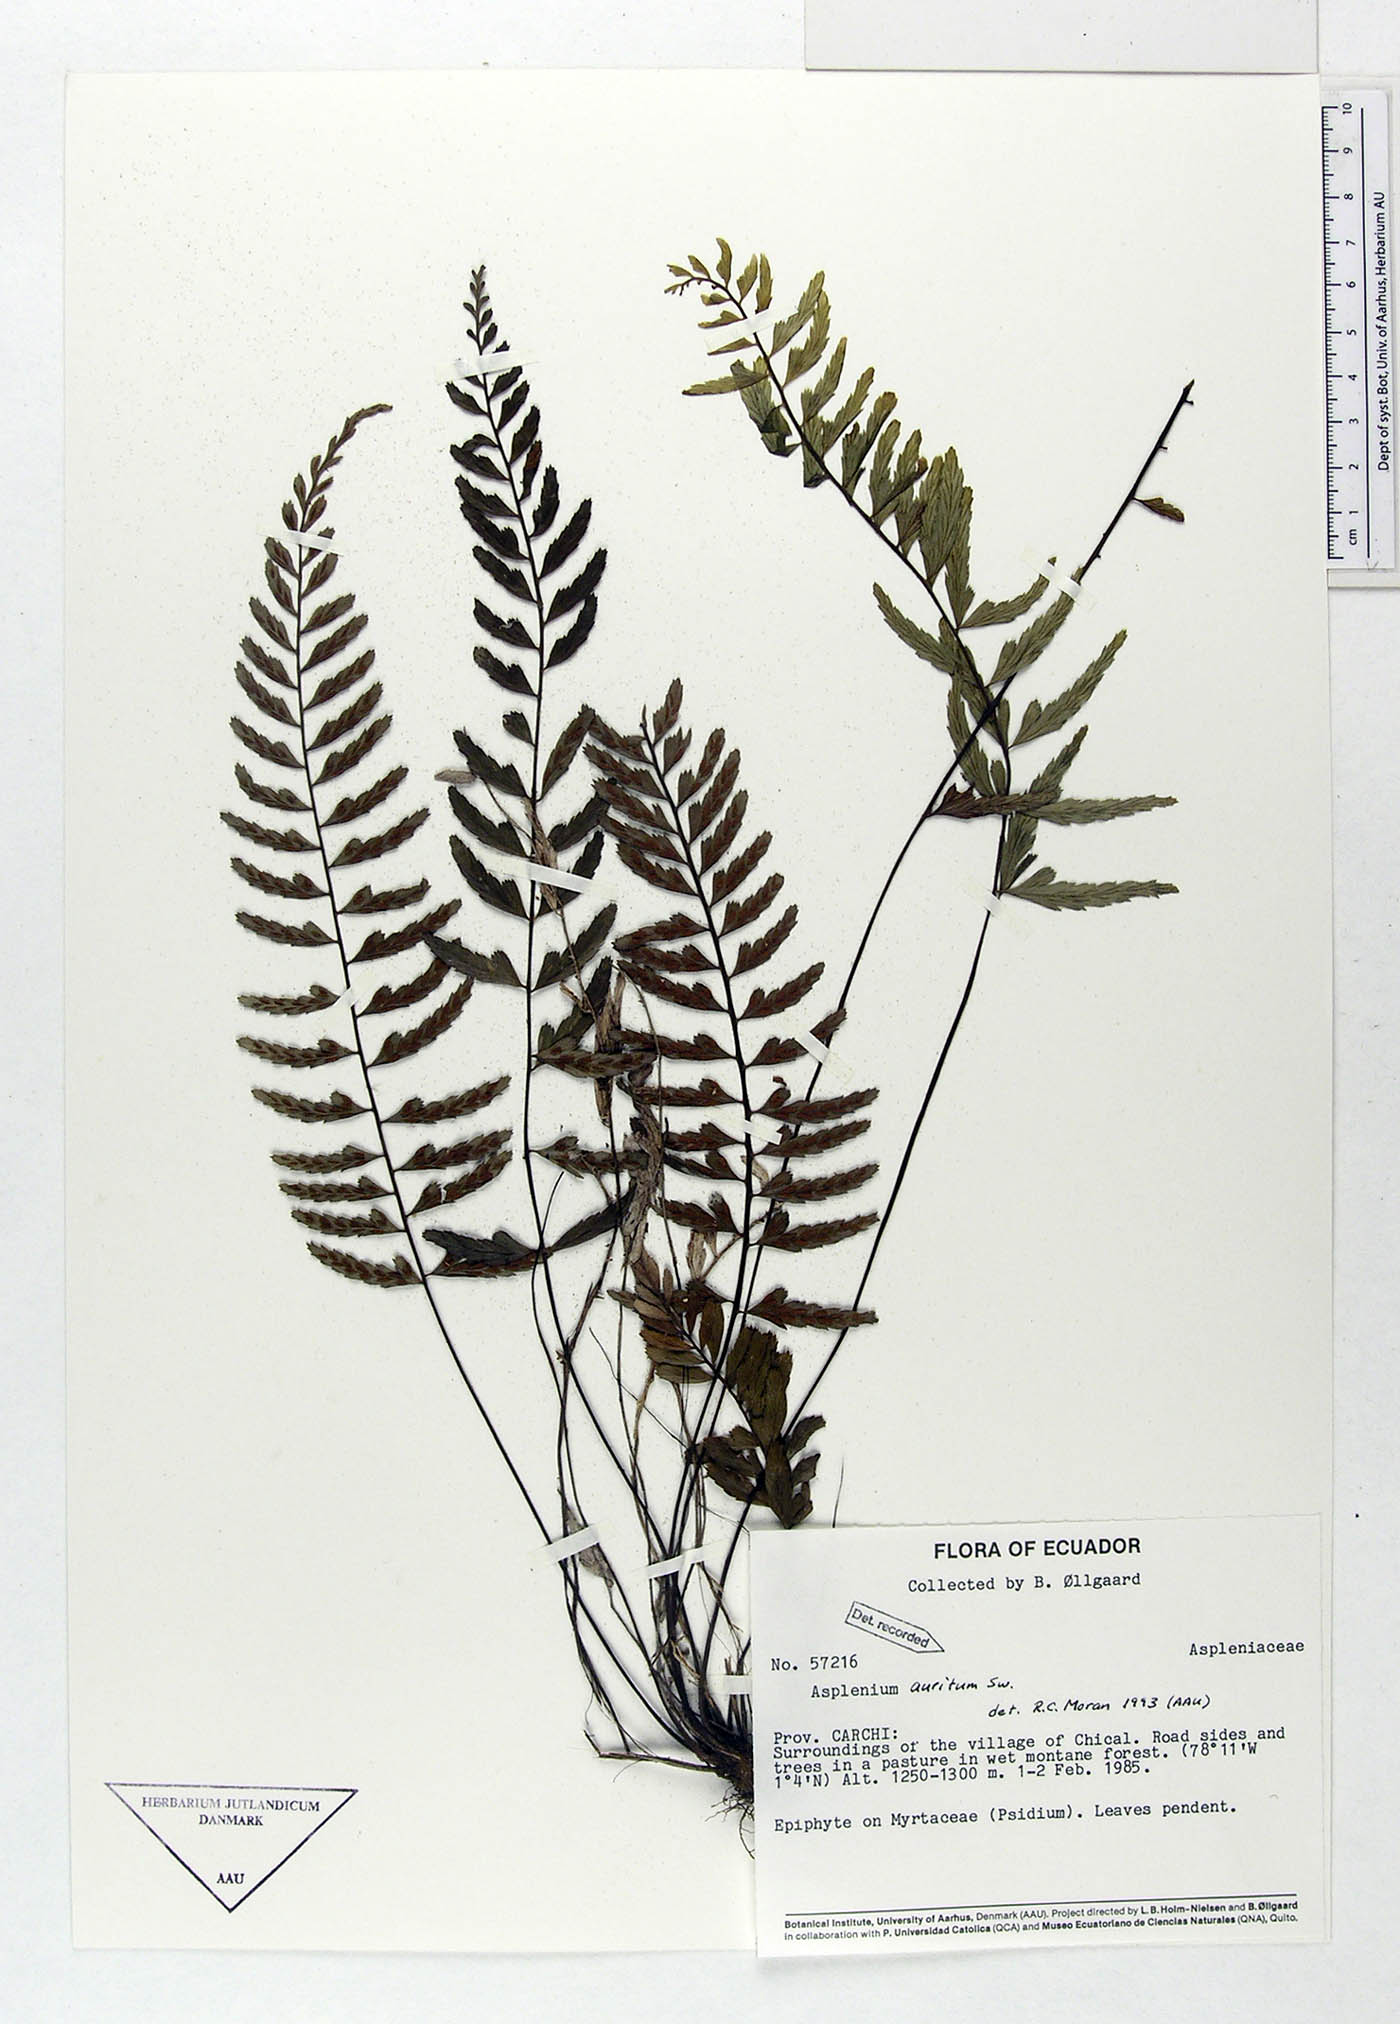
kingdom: Plantae
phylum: Tracheophyta
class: Polypodiopsida
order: Polypodiales
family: Aspleniaceae
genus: Asplenium
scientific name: Asplenium auritum
